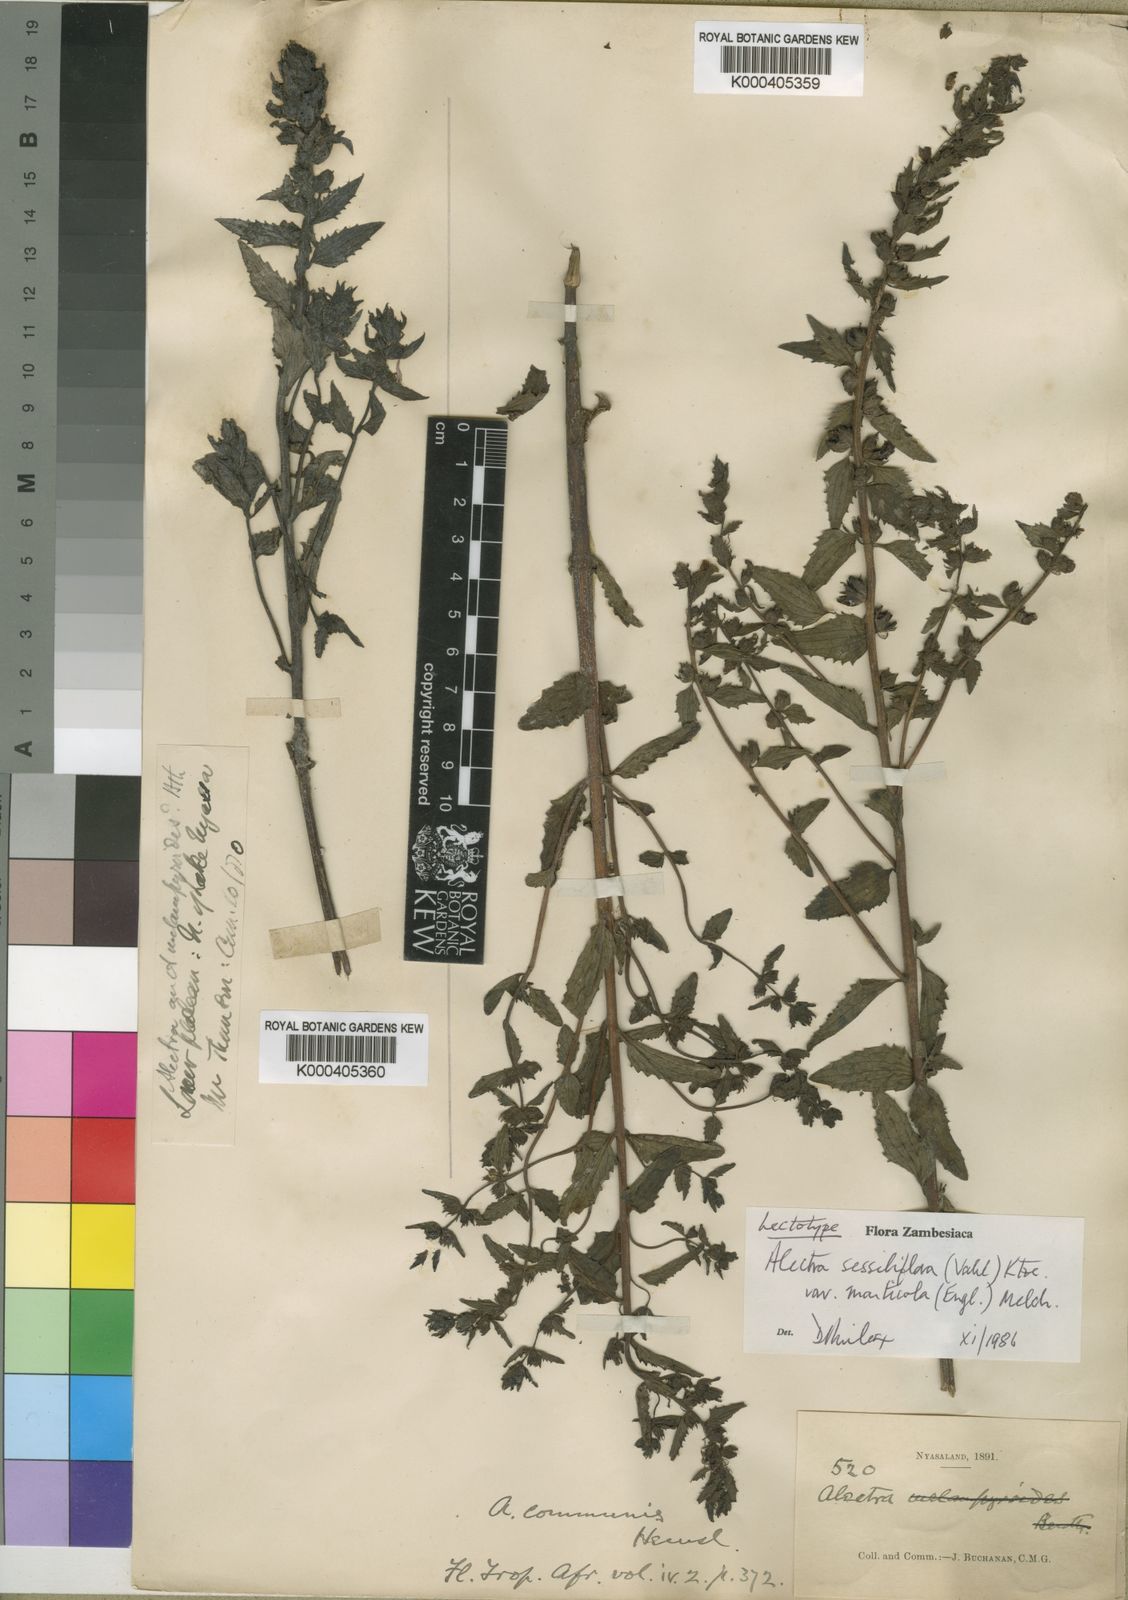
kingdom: Plantae
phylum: Tracheophyta
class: Magnoliopsida
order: Lamiales
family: Orobanchaceae
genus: Alectra
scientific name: Alectra sessiliflora
